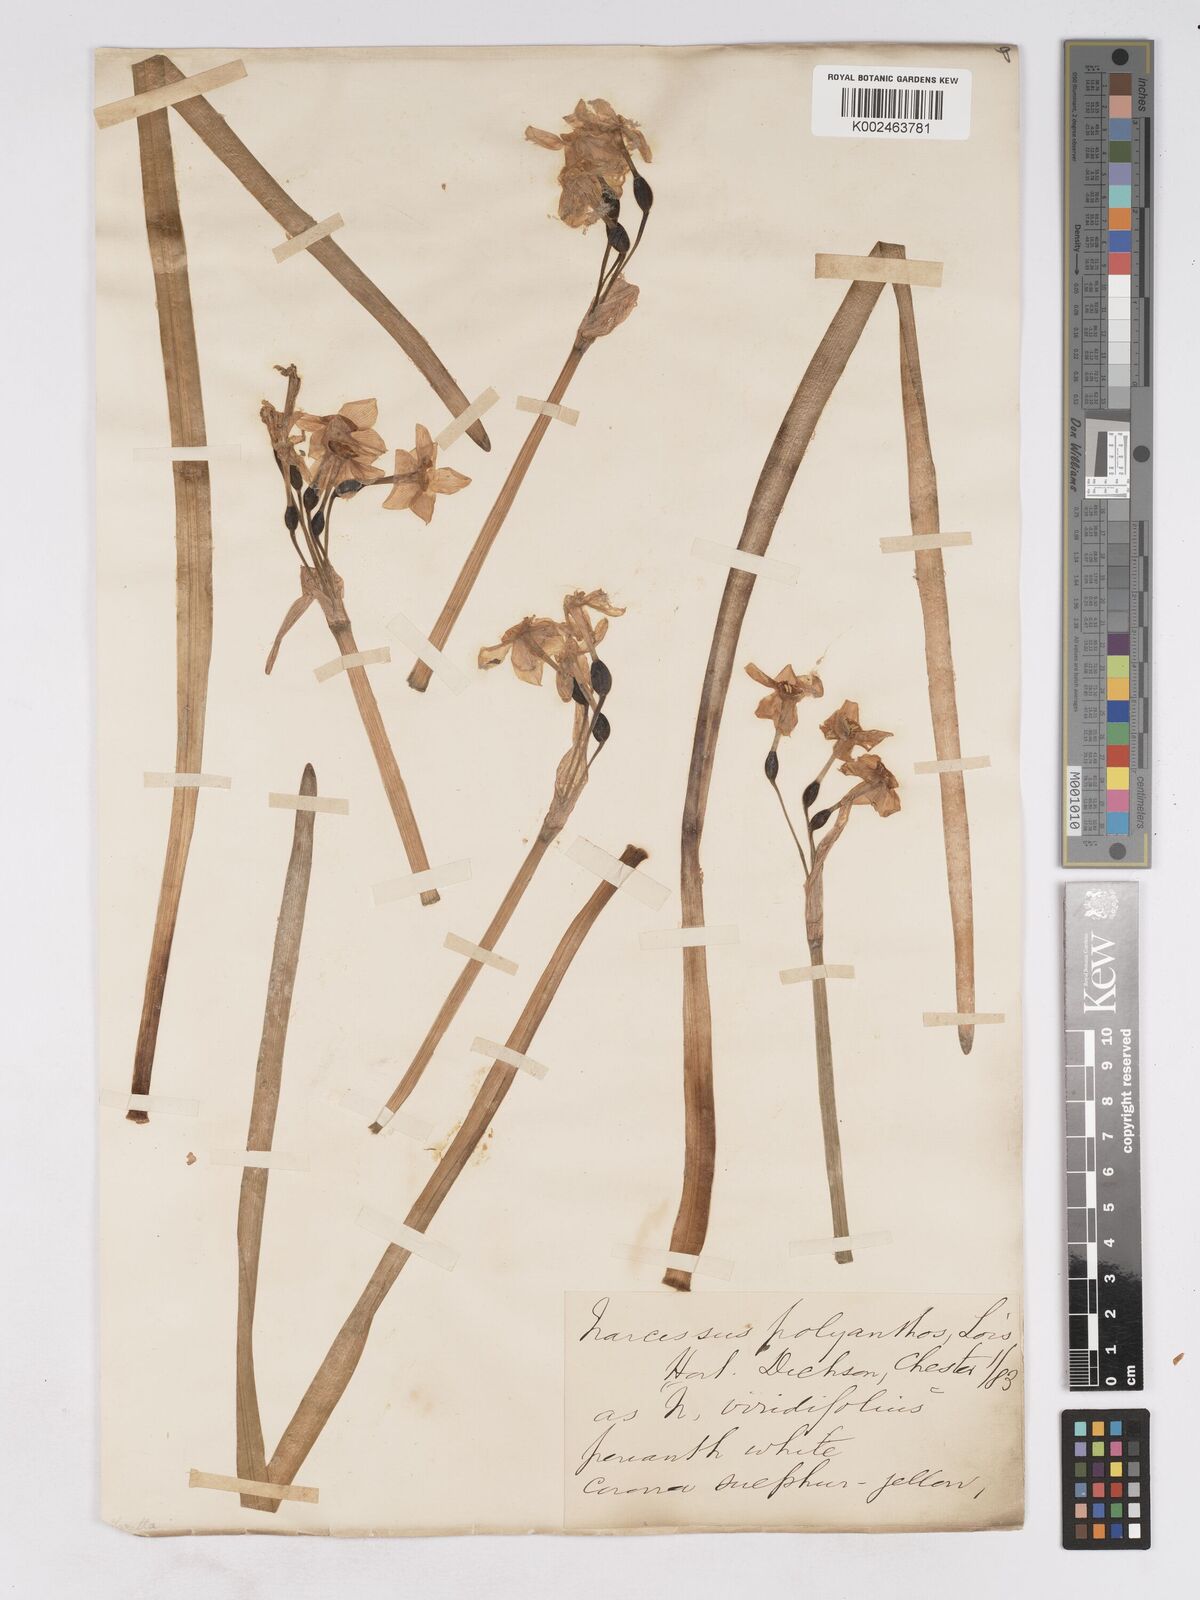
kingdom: Plantae
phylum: Tracheophyta
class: Liliopsida
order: Asparagales
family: Amaryllidaceae
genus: Narcissus
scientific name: Narcissus
